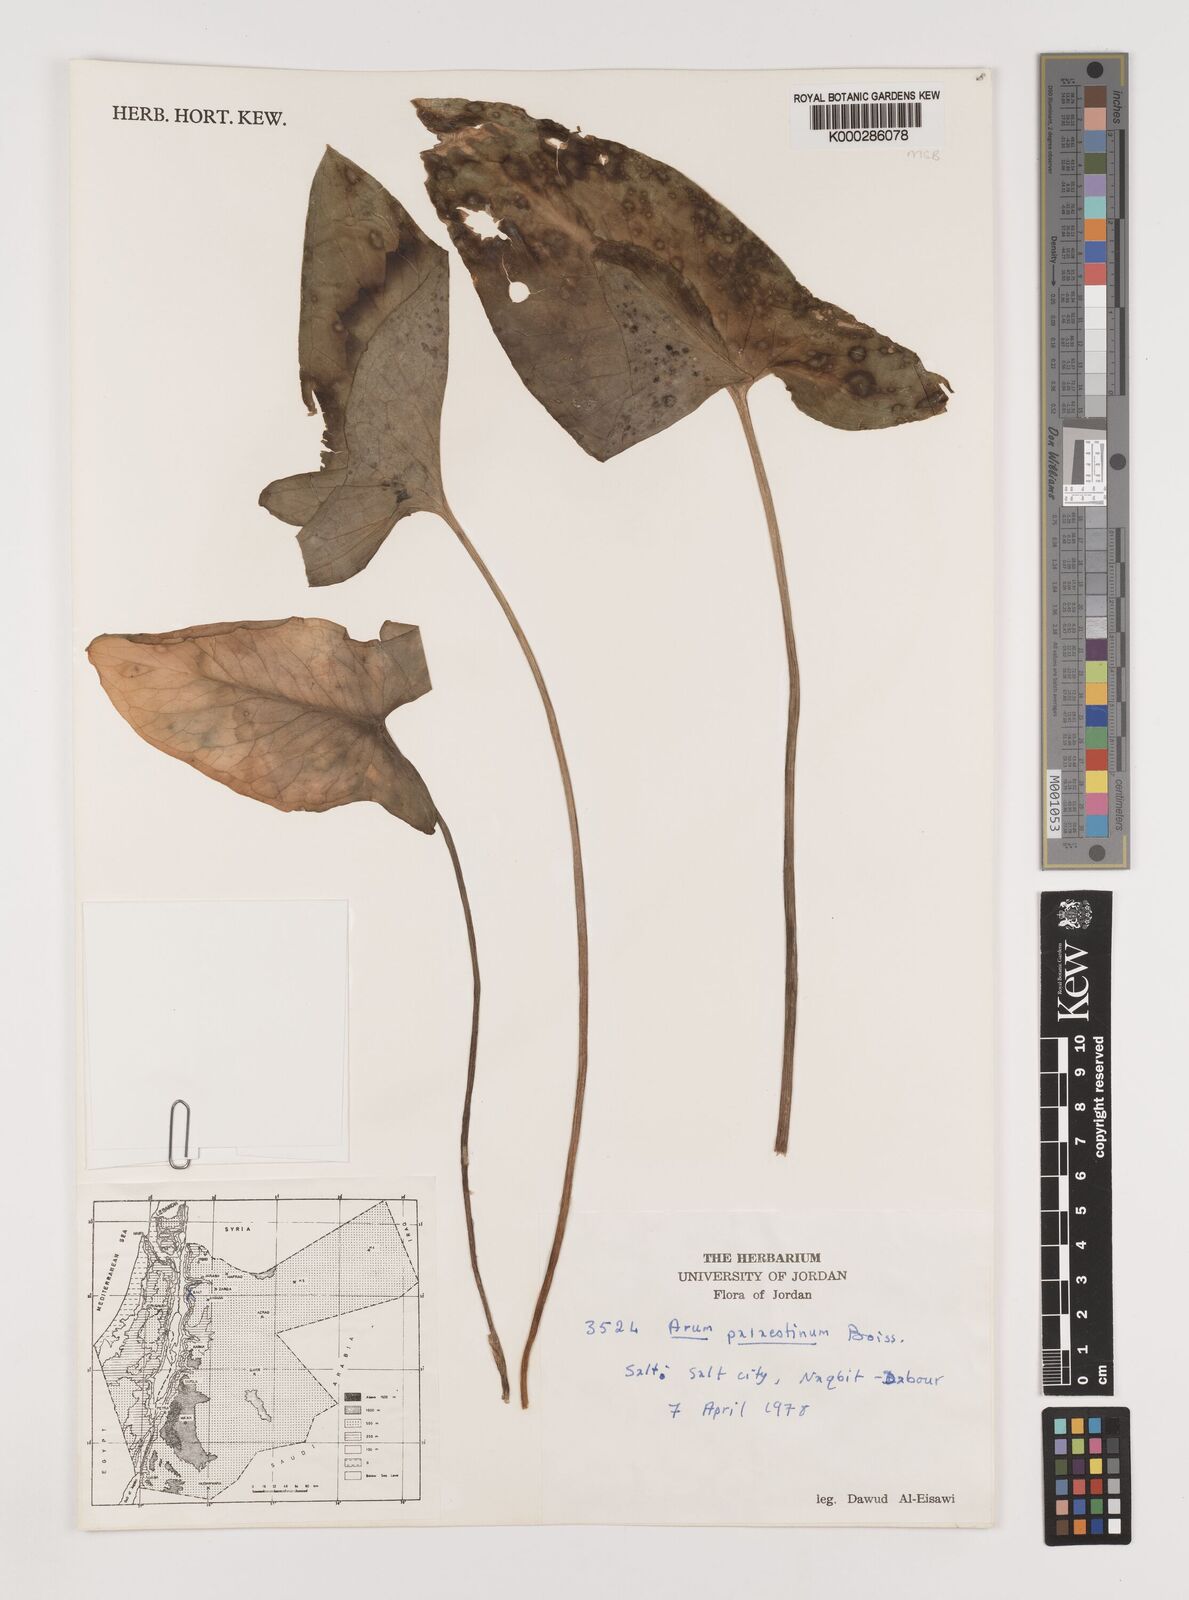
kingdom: Plantae
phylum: Tracheophyta
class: Liliopsida
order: Alismatales
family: Araceae
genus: Arum
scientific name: Arum palaestinum
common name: Solomon's lily
